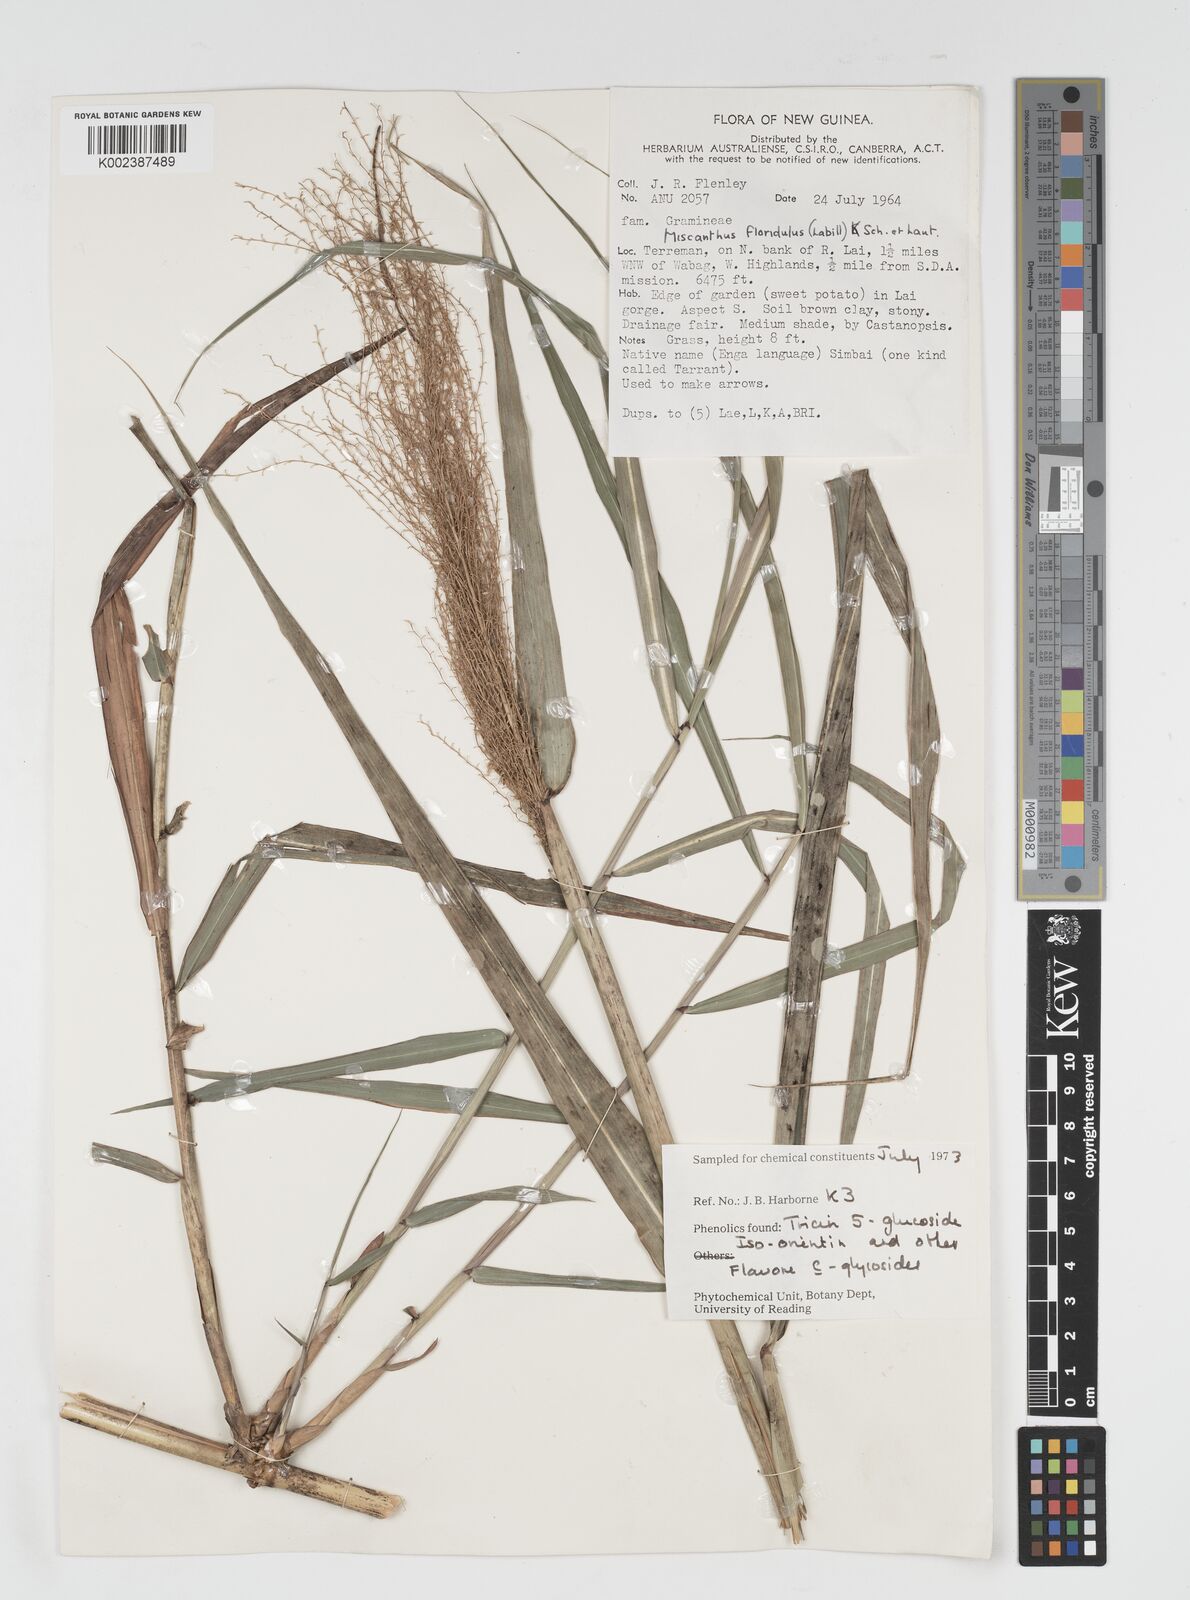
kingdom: Plantae
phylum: Tracheophyta
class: Liliopsida
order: Poales
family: Poaceae
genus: Miscanthus
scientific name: Miscanthus floridulus
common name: Pacific island silvergrass
